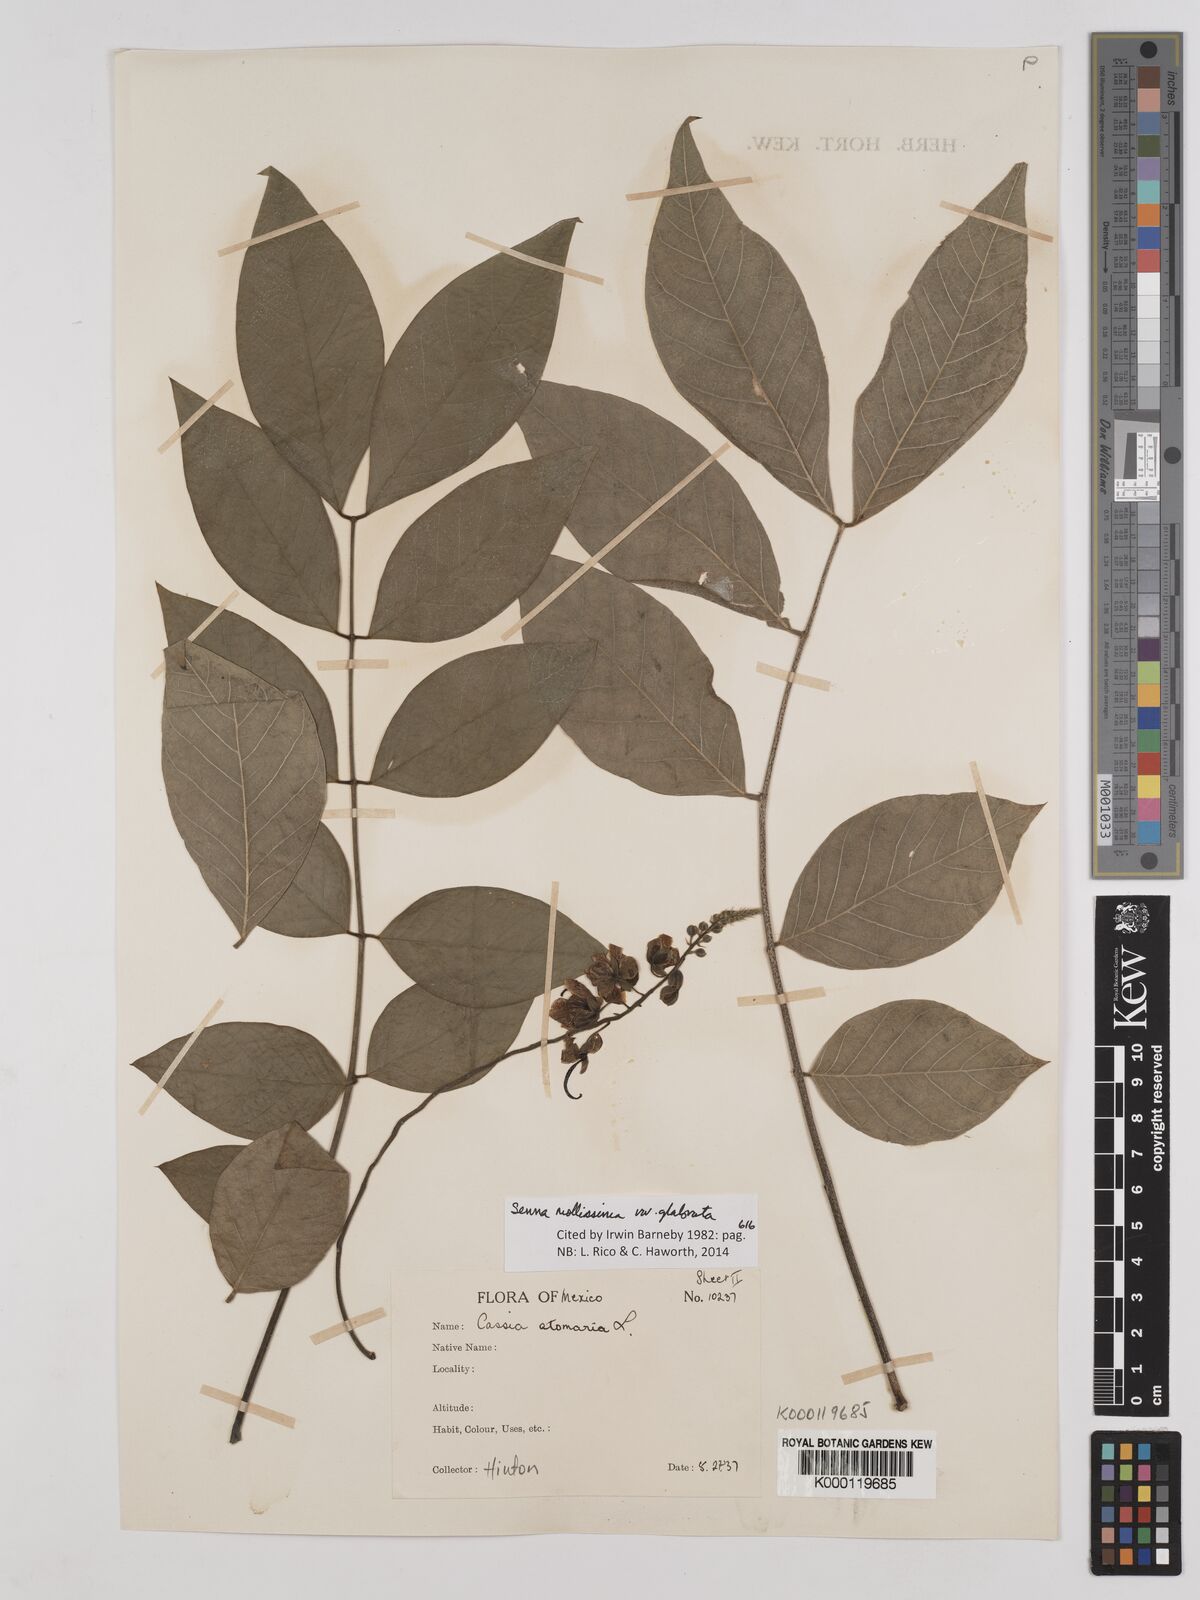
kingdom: Plantae
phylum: Tracheophyta
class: Magnoliopsida
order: Fabales
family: Fabaceae
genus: Senna
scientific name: Senna mollissima
